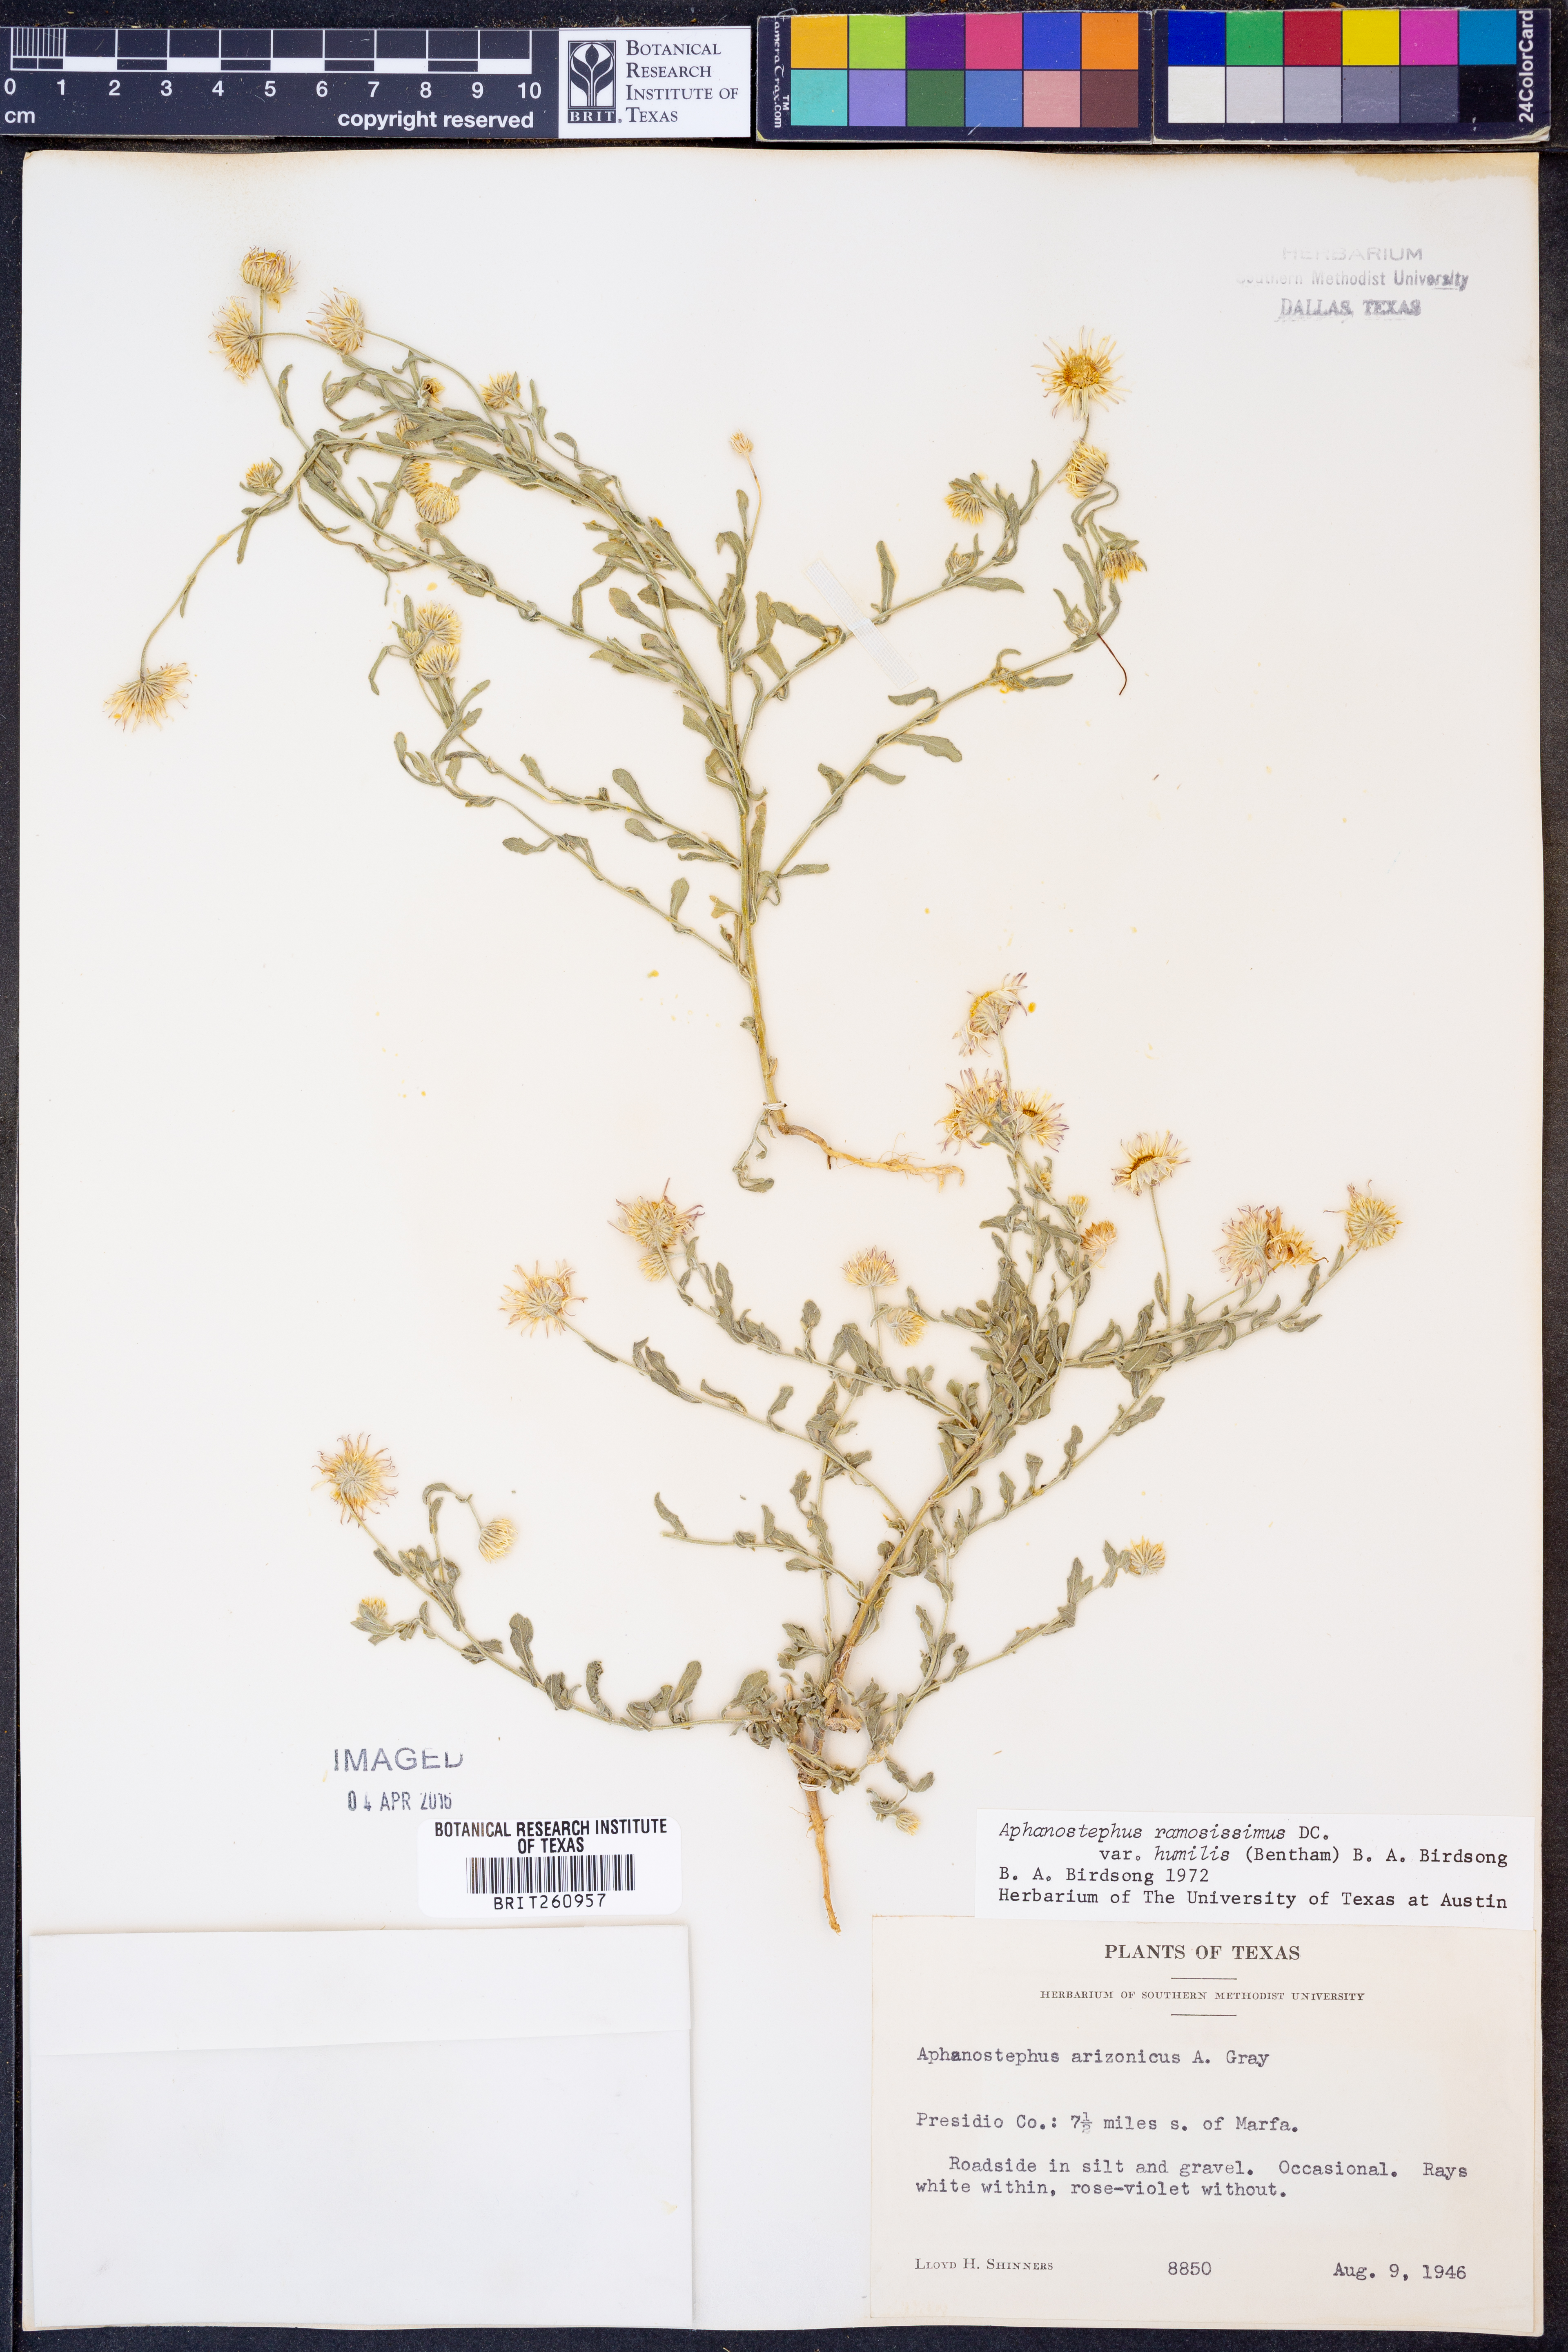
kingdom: Plantae
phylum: Tracheophyta
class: Magnoliopsida
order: Asterales
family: Asteraceae
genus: Aphanostephus
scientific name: Aphanostephus ramosissimus
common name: Plains lazy daisy
